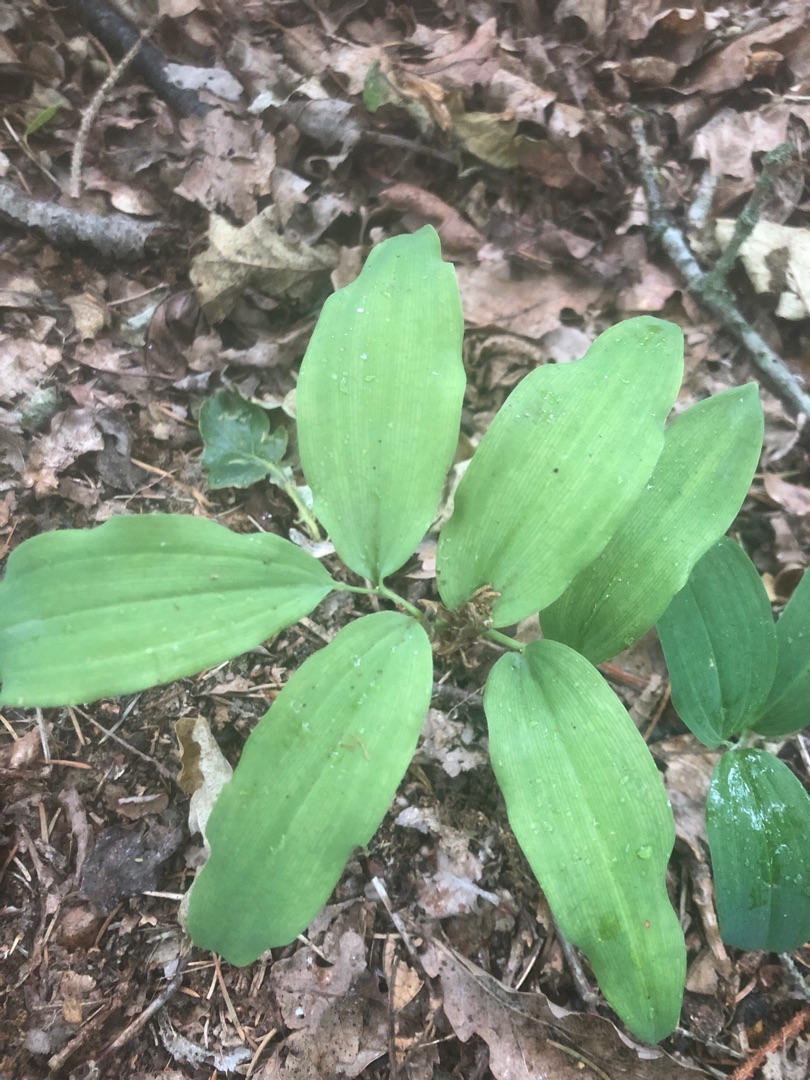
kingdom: Plantae
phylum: Tracheophyta
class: Liliopsida
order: Asparagales
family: Asparagaceae
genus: Polygonatum
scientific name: Polygonatum multiflorum
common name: Stor konval
